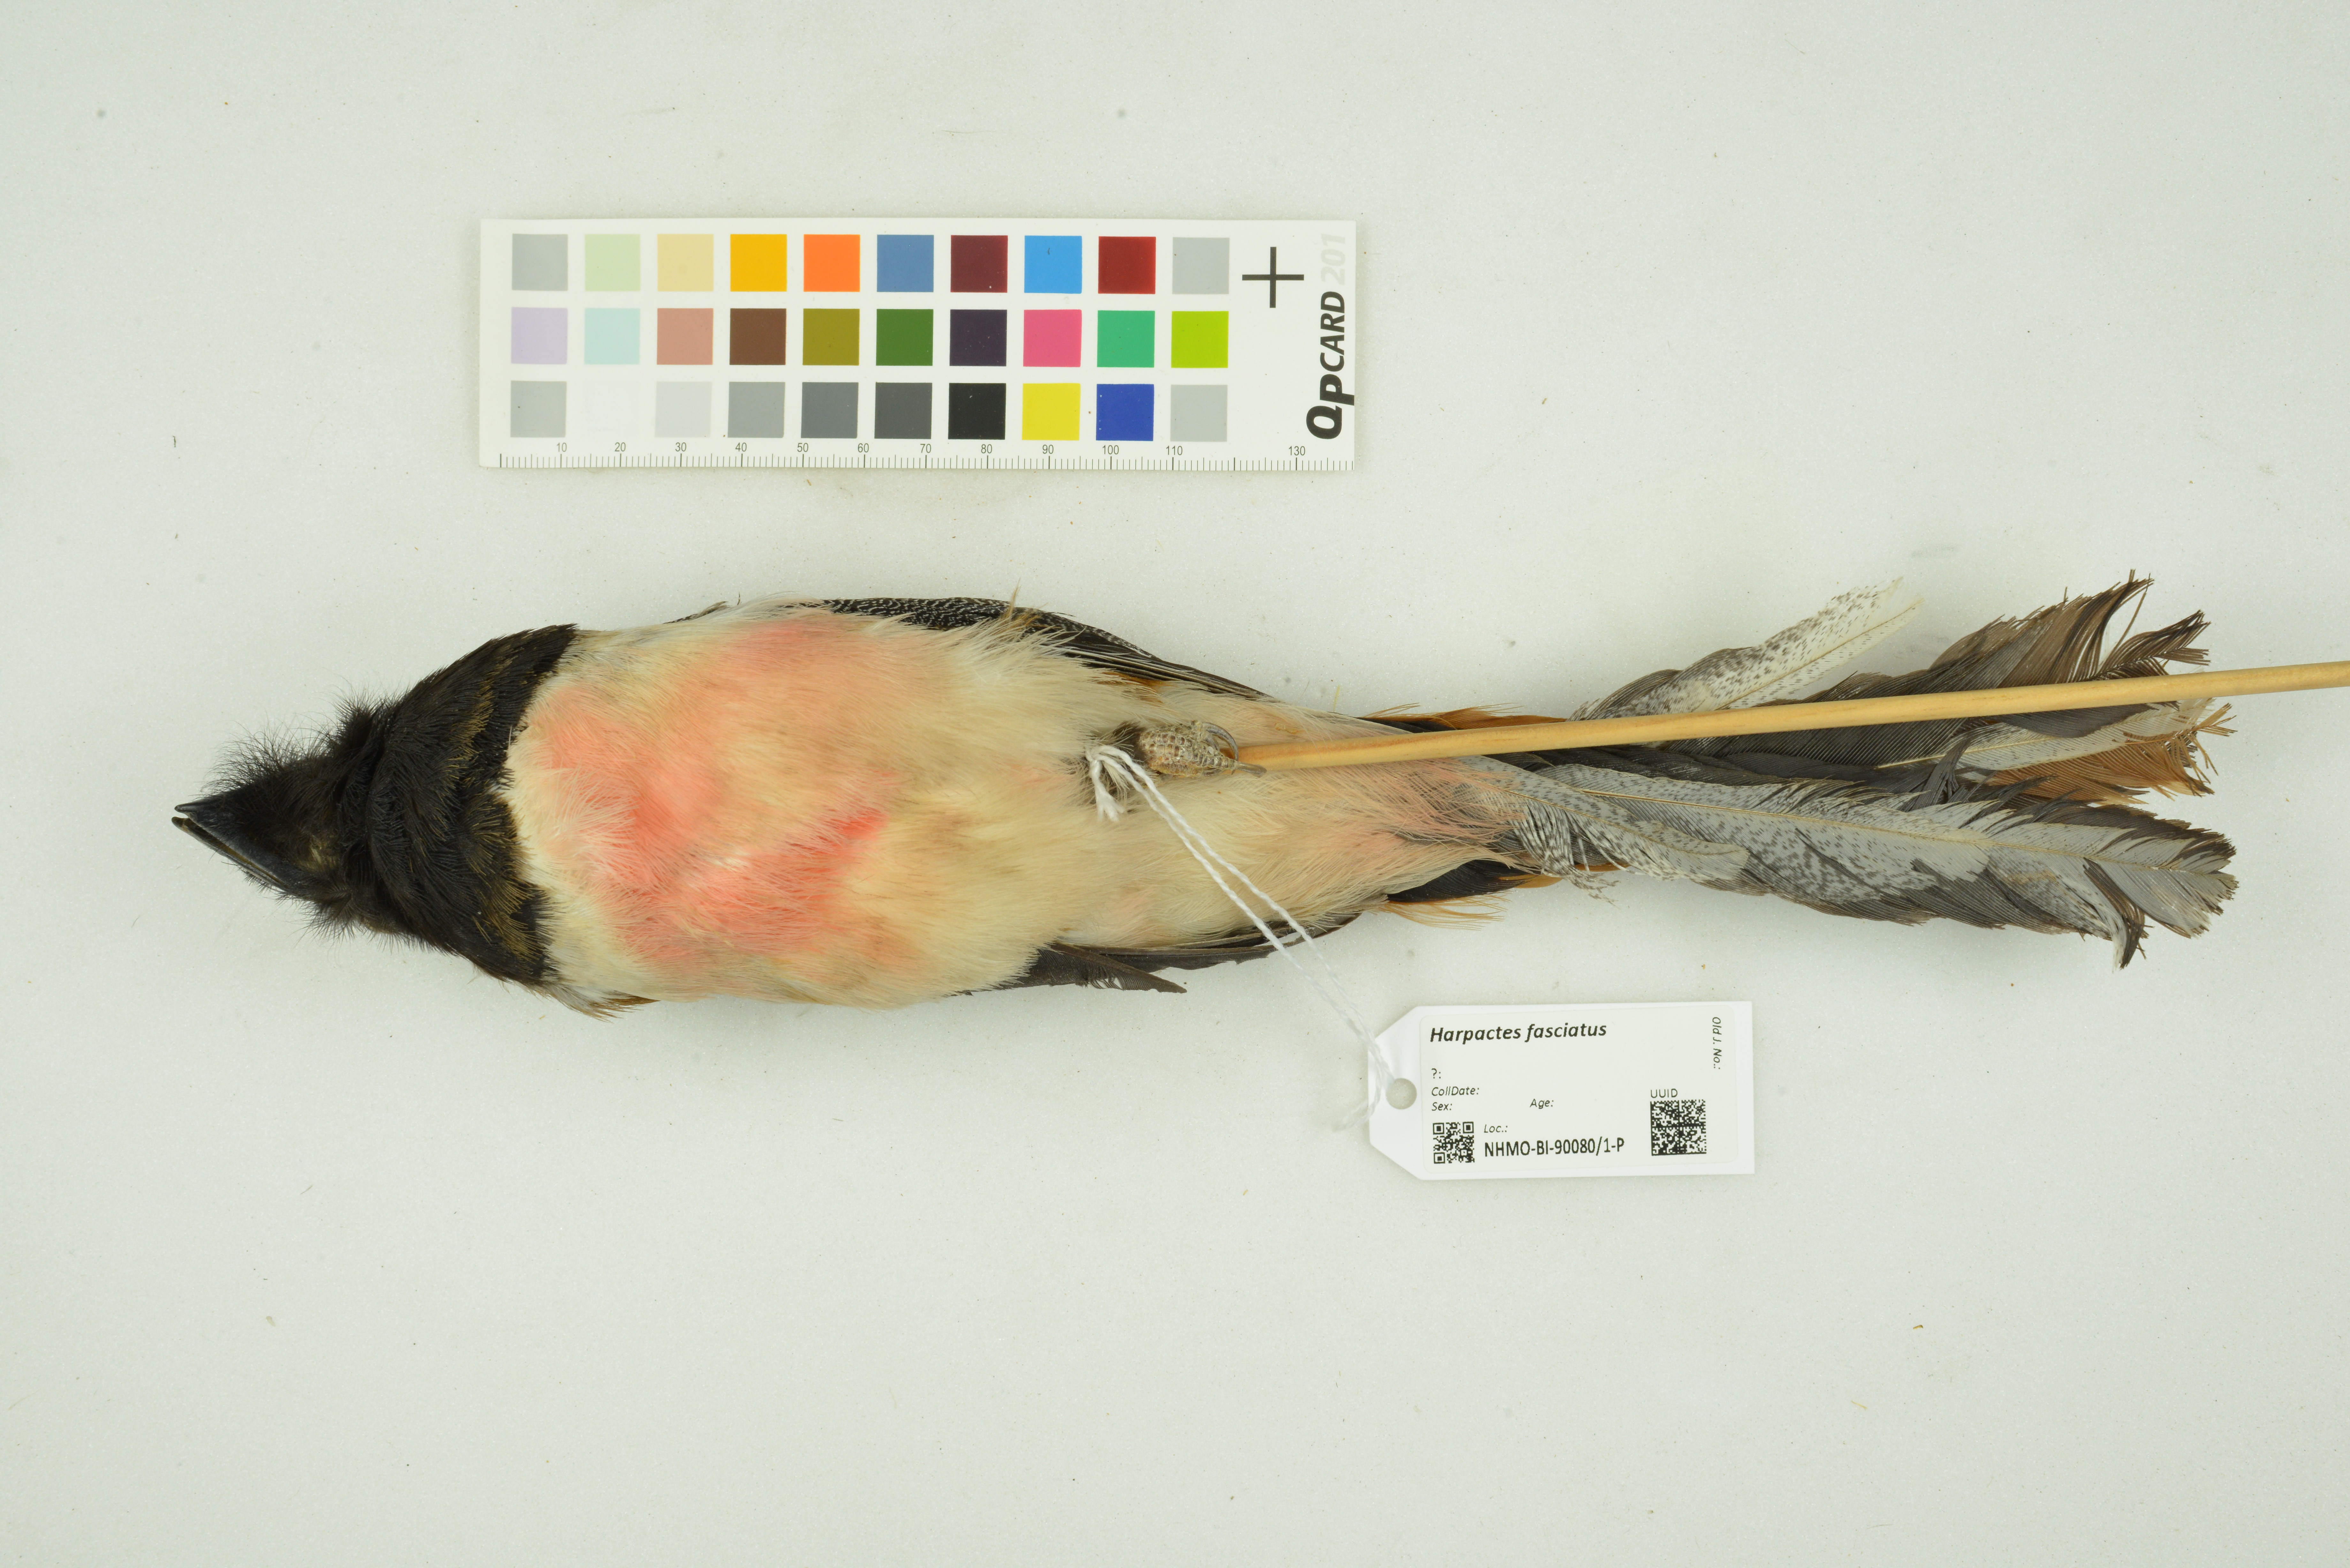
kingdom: Animalia
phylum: Chordata
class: Aves
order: Trogoniformes
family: Trogonidae
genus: Harpactes
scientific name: Harpactes fasciatus
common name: Malabar trogon
